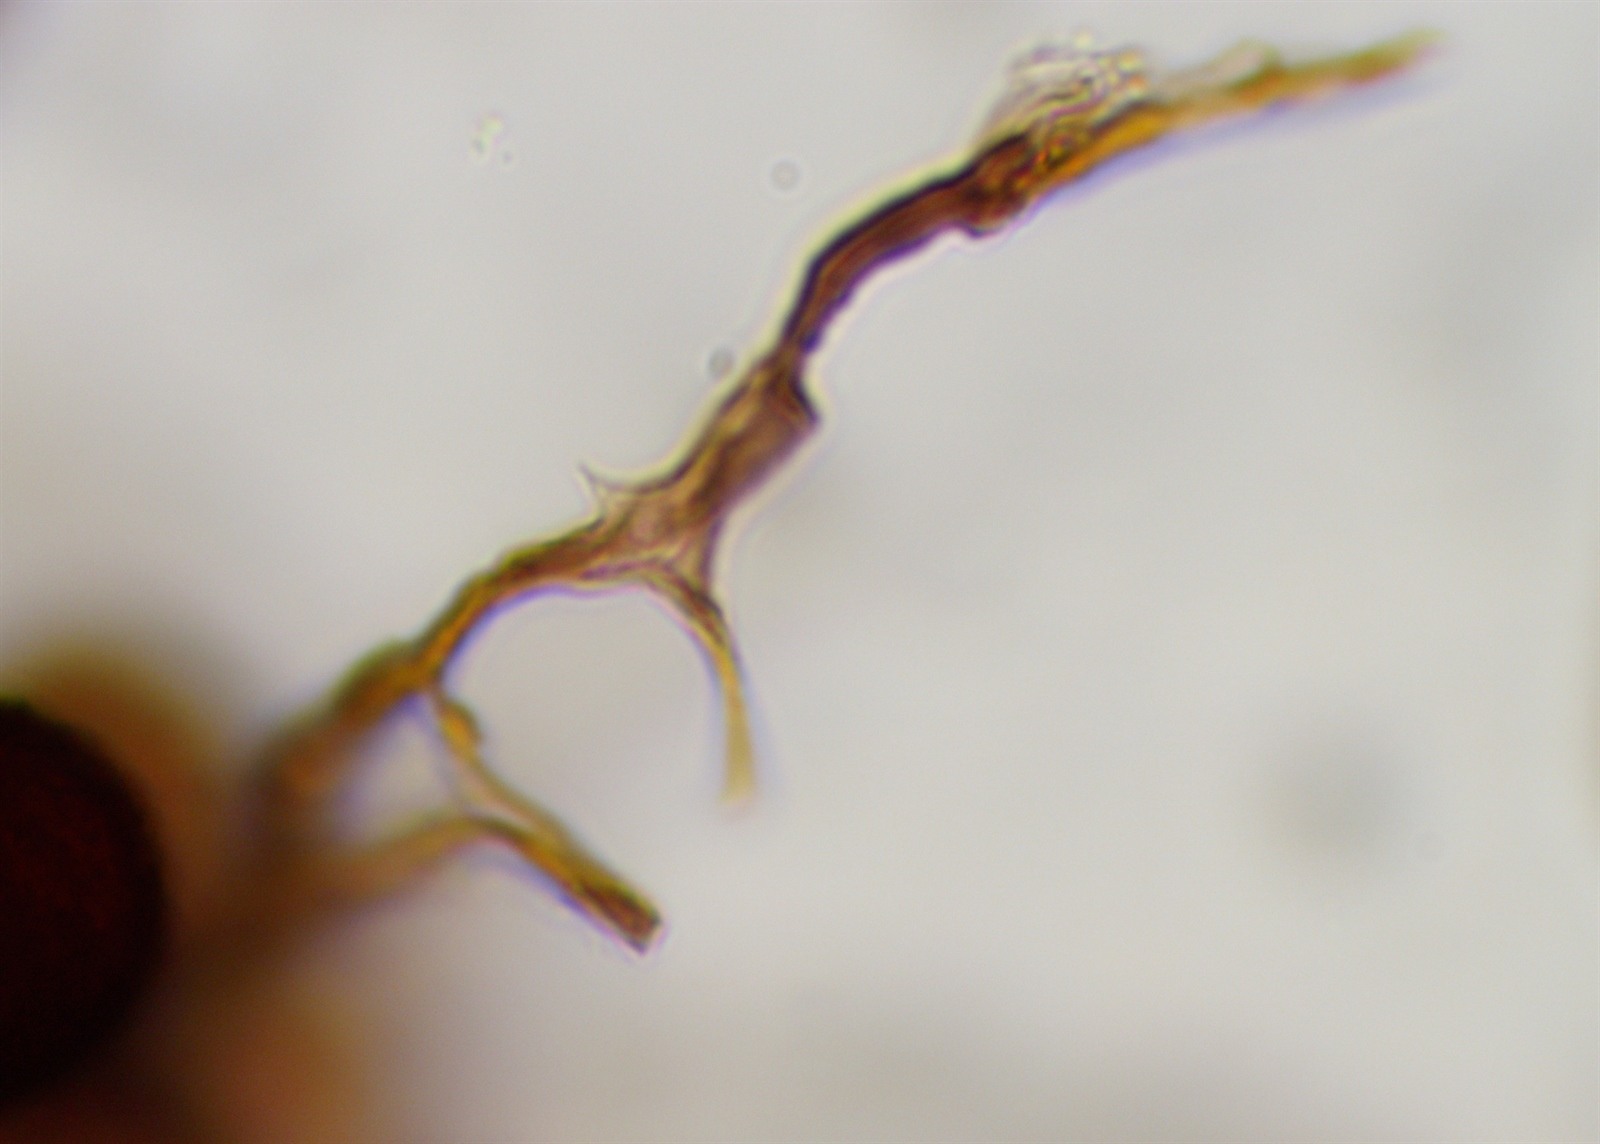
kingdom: Protozoa
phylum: Mycetozoa
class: Myxomycetes
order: Stemonitidales
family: Stemonitidaceae
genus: Meriderma
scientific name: Meriderma cribrarioides
